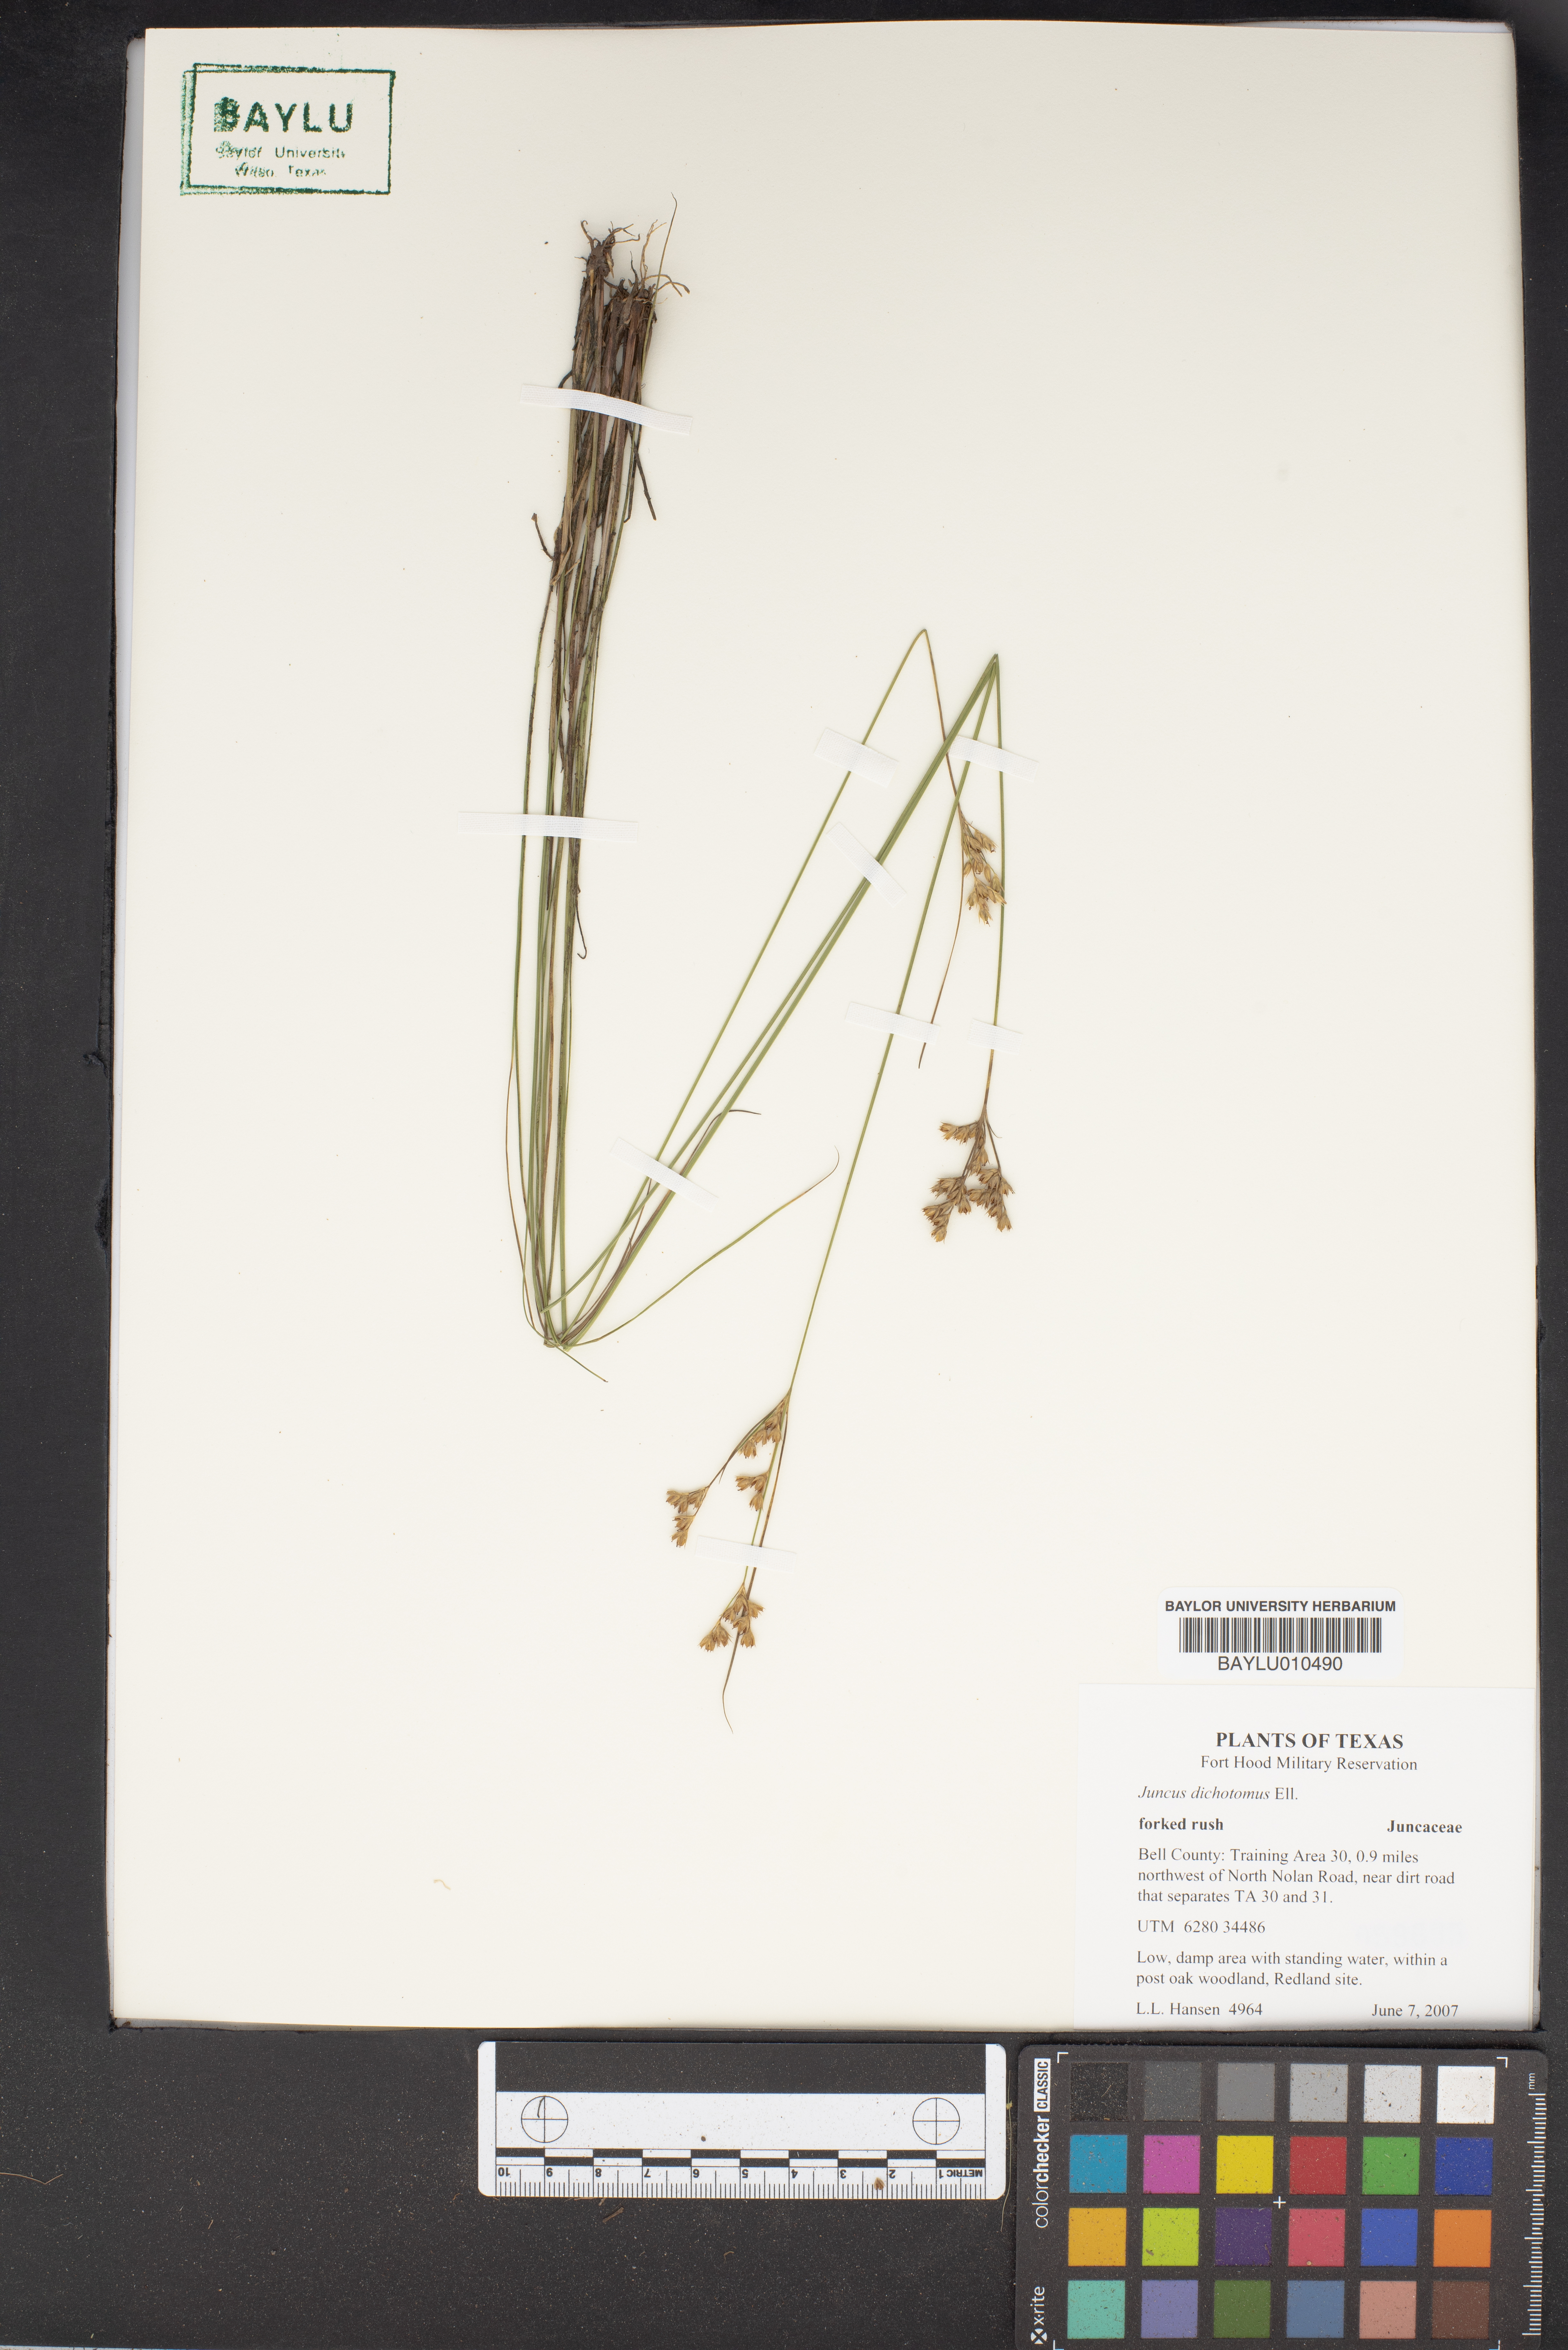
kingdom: Plantae
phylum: Tracheophyta
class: Liliopsida
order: Poales
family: Juncaceae
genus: Juncus
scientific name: Juncus dichotomus
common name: Forked rush
